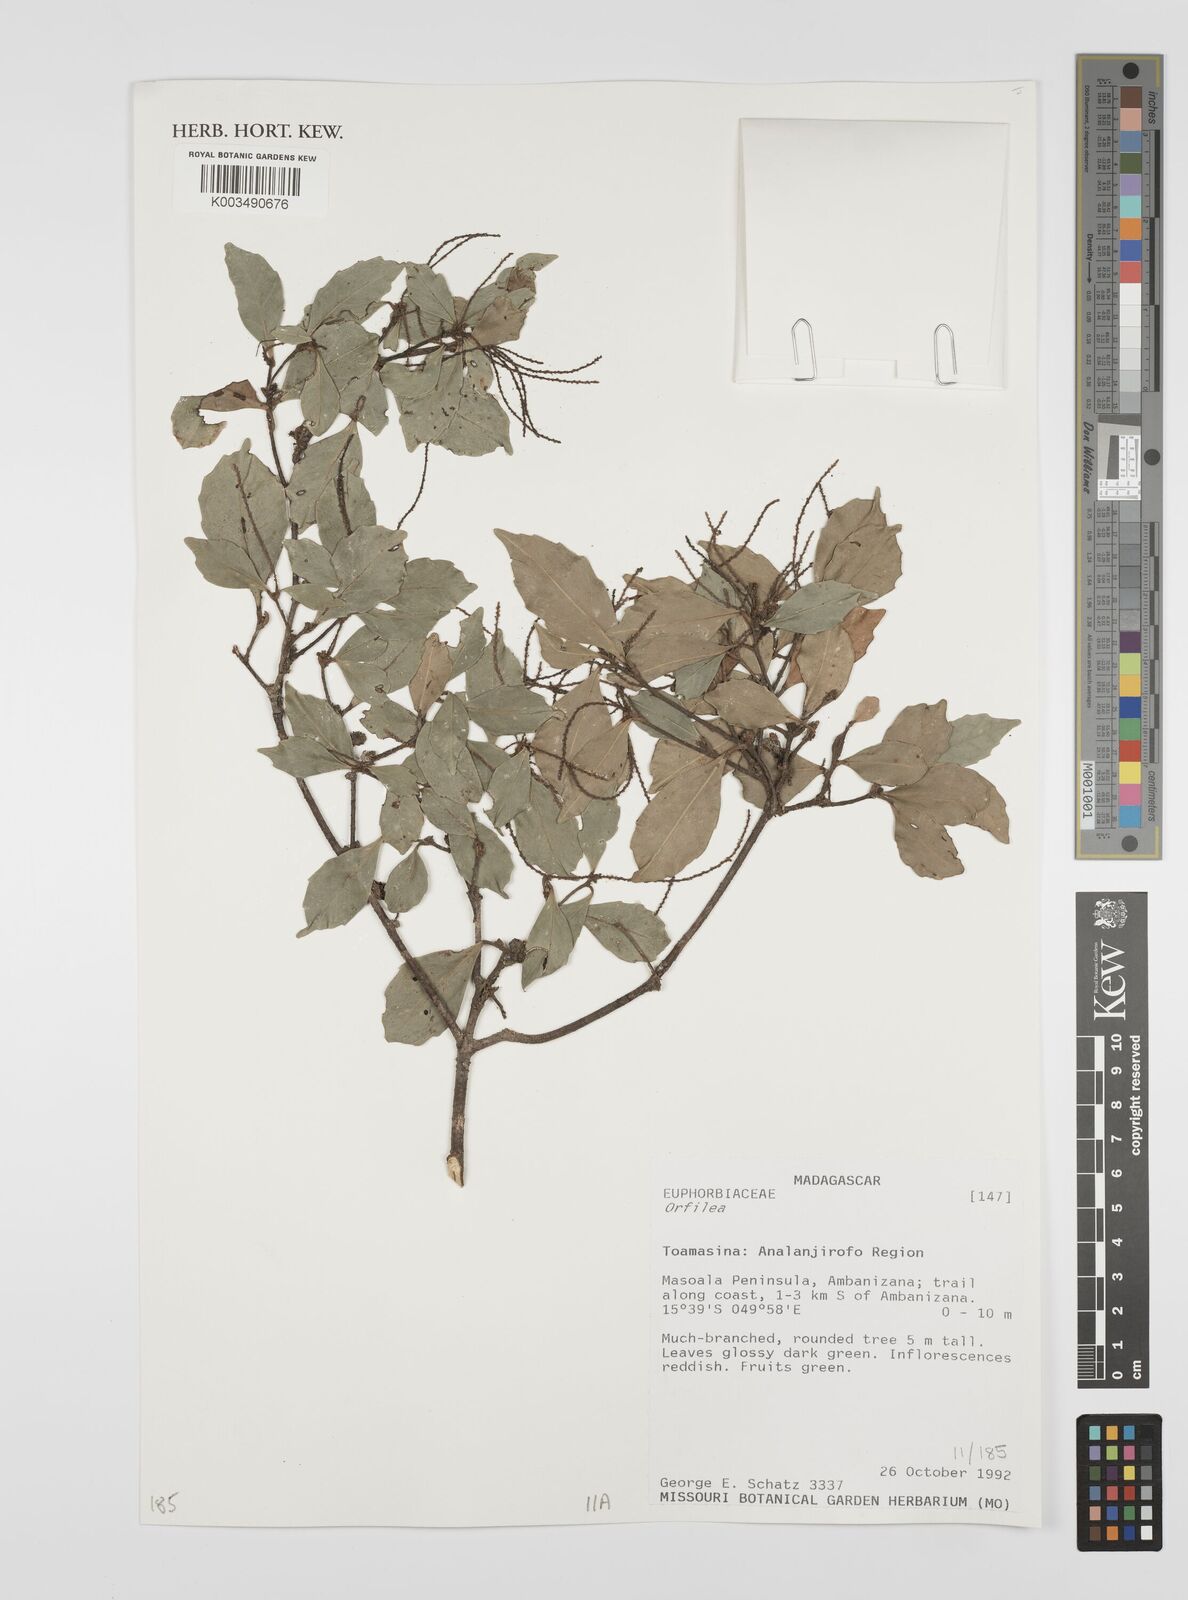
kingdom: Plantae
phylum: Tracheophyta
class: Magnoliopsida
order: Malpighiales
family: Euphorbiaceae
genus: Orfilea
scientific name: Orfilea coriacea
